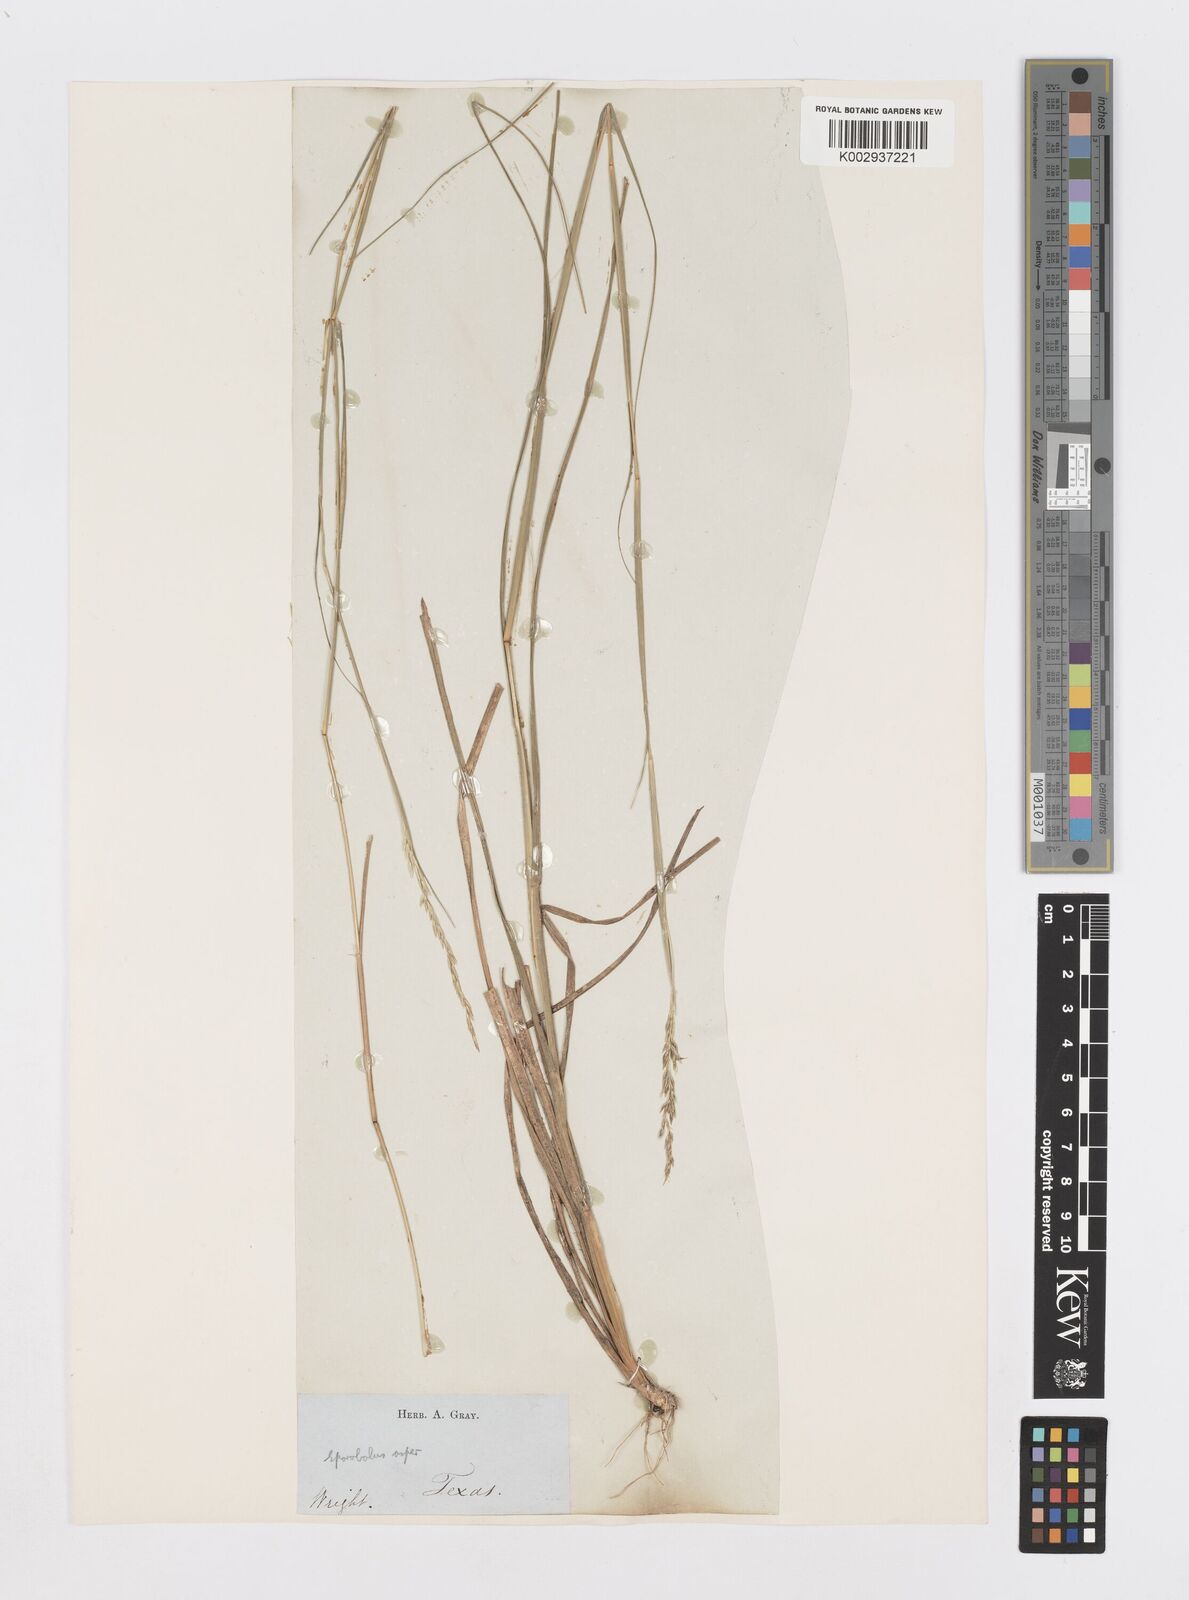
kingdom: Plantae
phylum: Tracheophyta
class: Liliopsida
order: Poales
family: Poaceae
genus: Sporobolus
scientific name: Sporobolus compositus
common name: Rough dropseed
